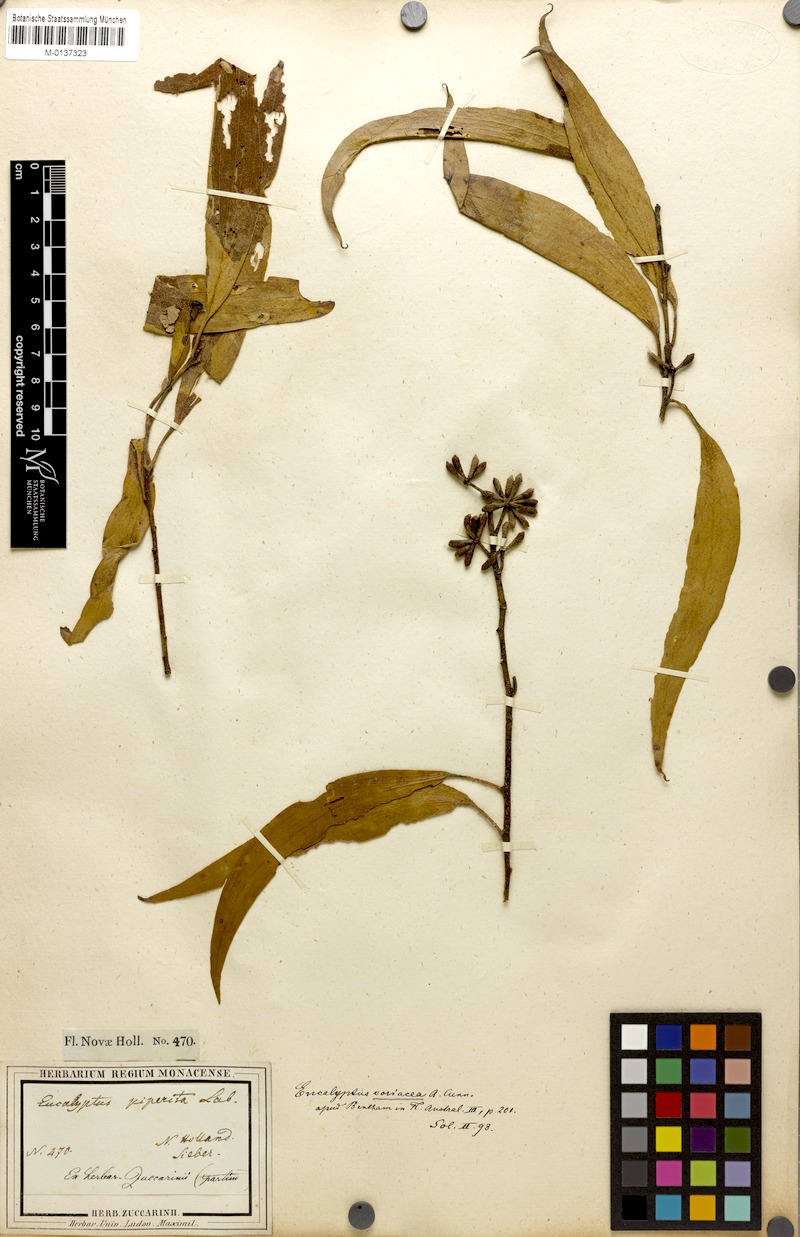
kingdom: Plantae
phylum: Tracheophyta
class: Magnoliopsida
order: Myrtales
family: Myrtaceae
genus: Eucalyptus
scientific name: Eucalyptus pauciflora
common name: Snow gum
